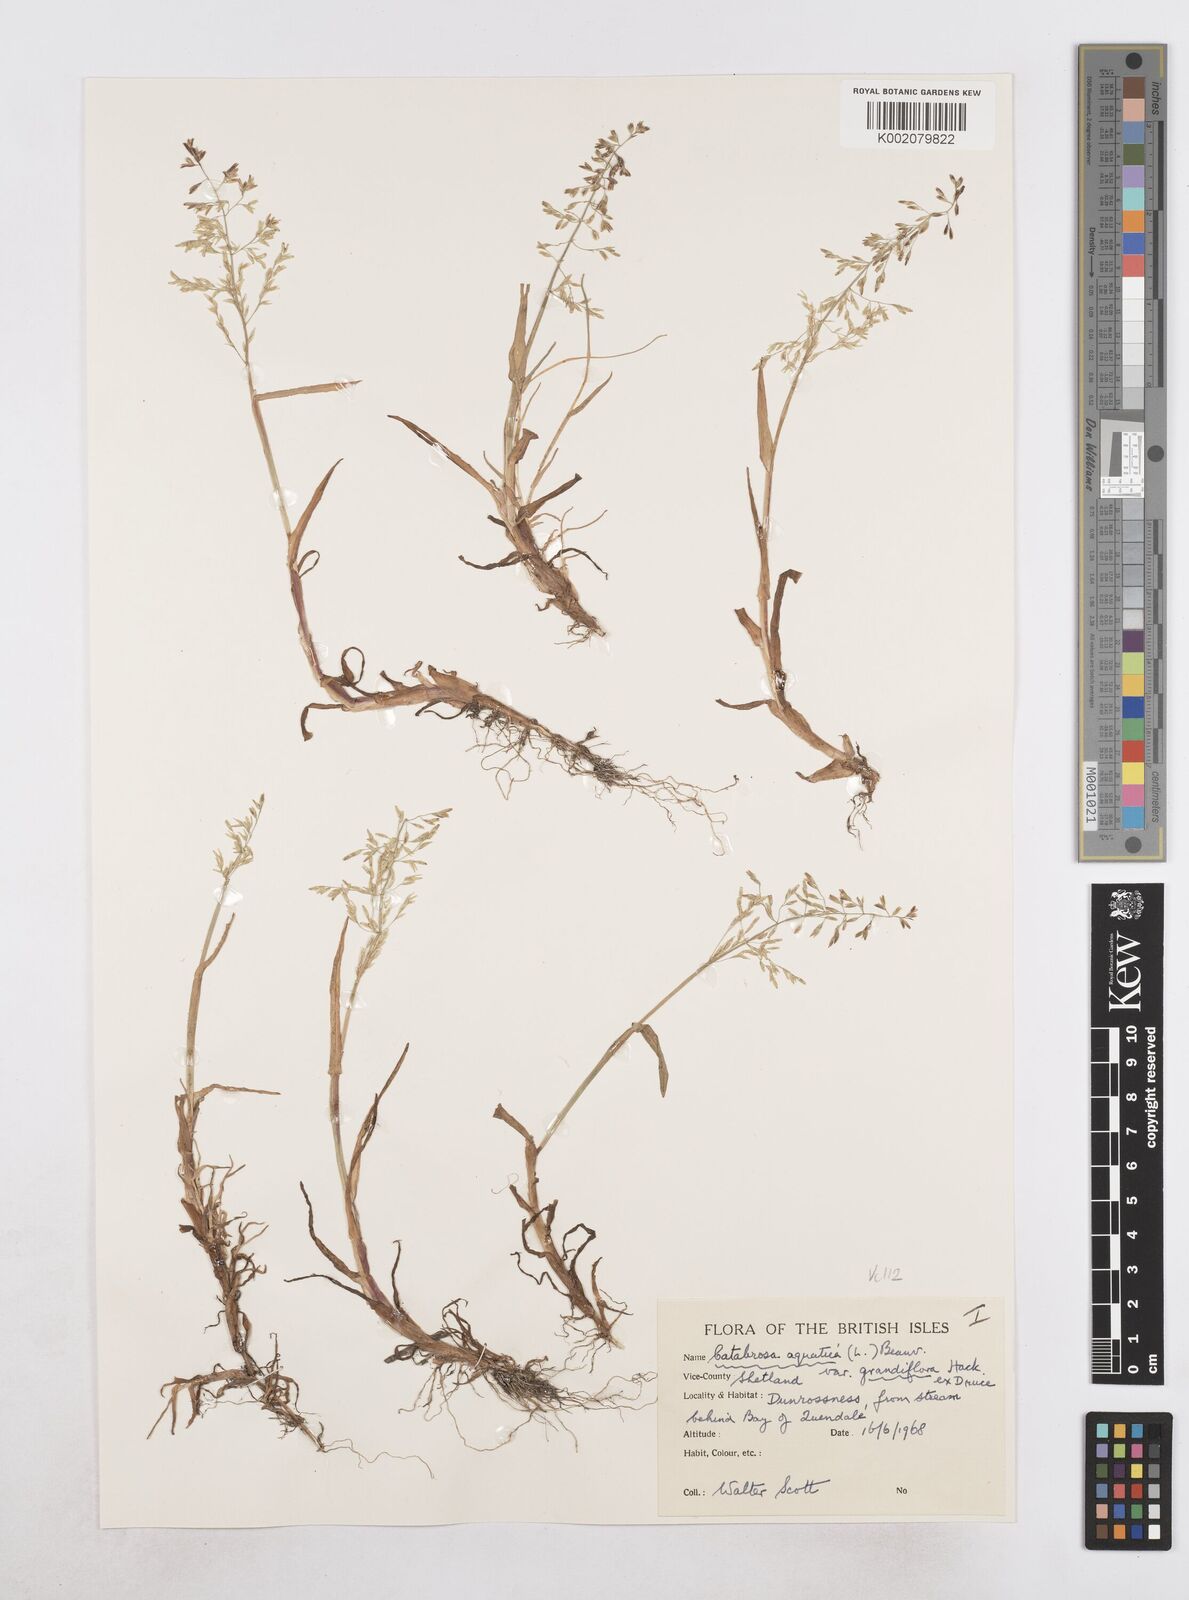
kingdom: Plantae
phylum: Tracheophyta
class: Liliopsida
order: Poales
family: Poaceae
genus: Catabrosa
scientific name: Catabrosa aquatica
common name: Whorl-grass
